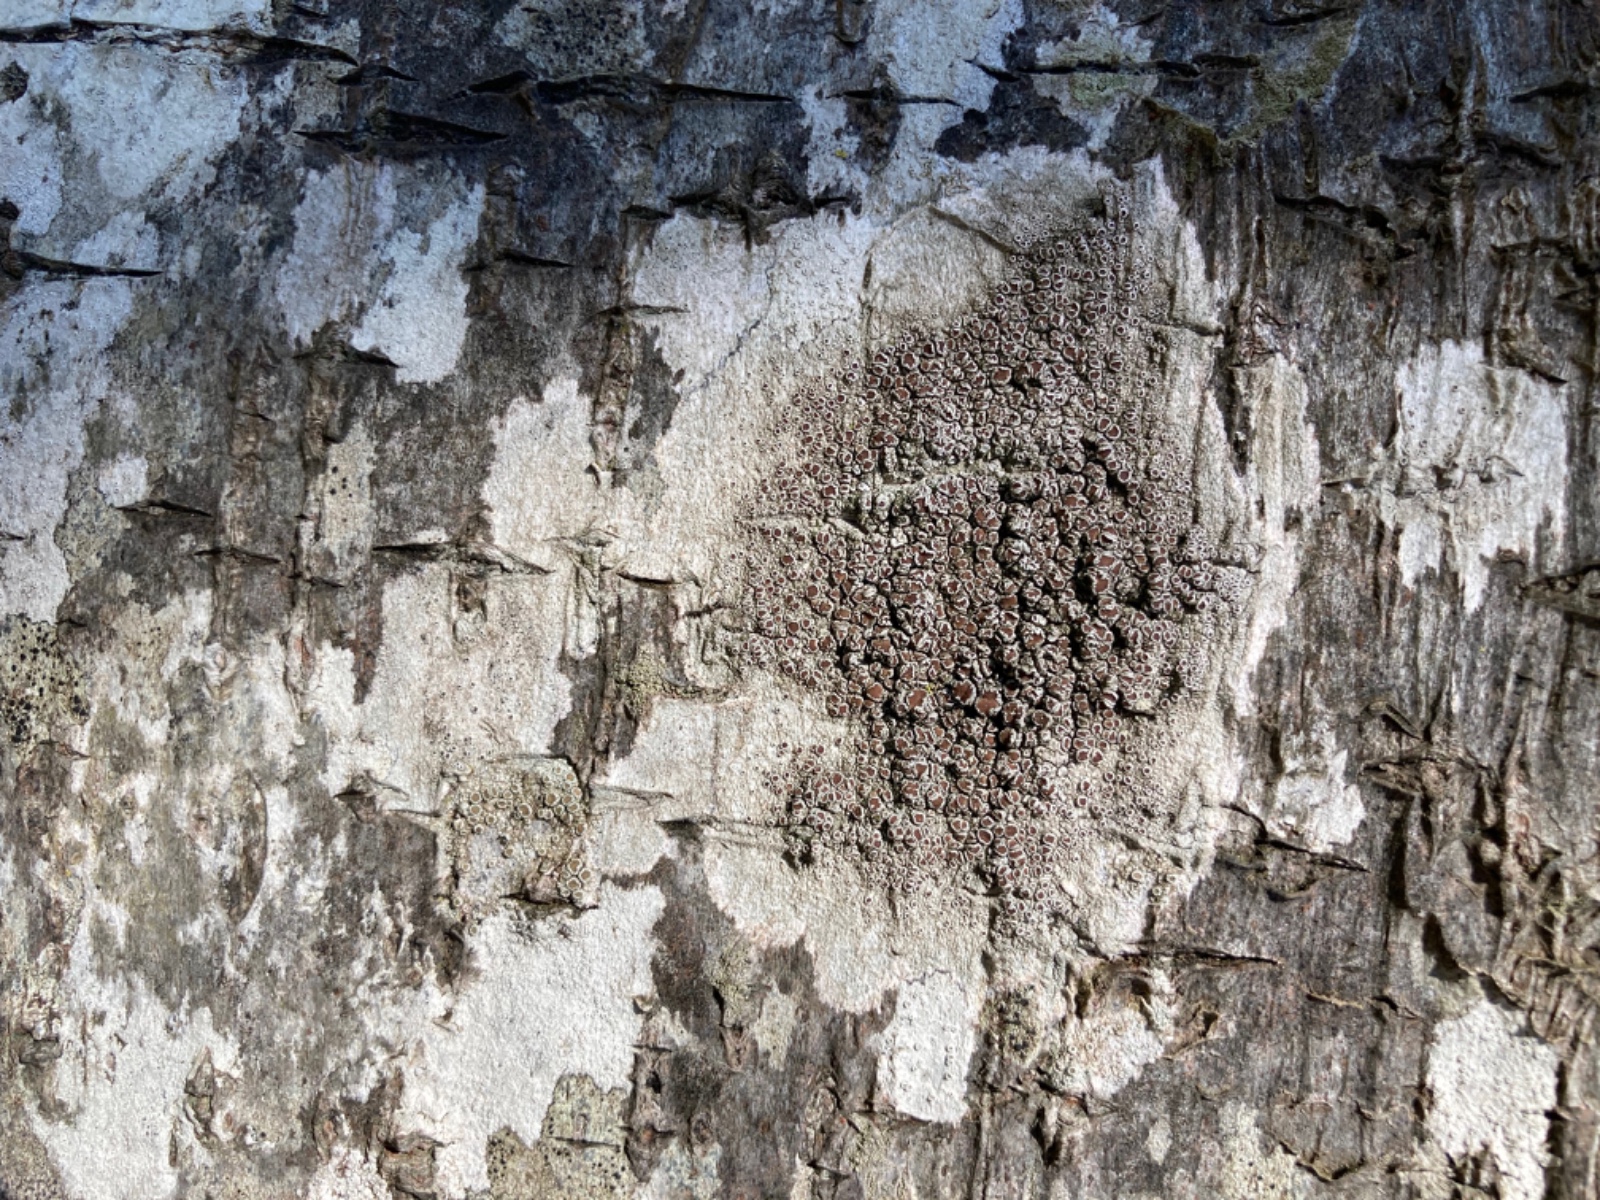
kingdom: Fungi
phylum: Ascomycota
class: Lecanoromycetes
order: Lecanorales
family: Lecanoraceae
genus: Lecanora
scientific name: Lecanora chlarotera
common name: brun kantskivelav
